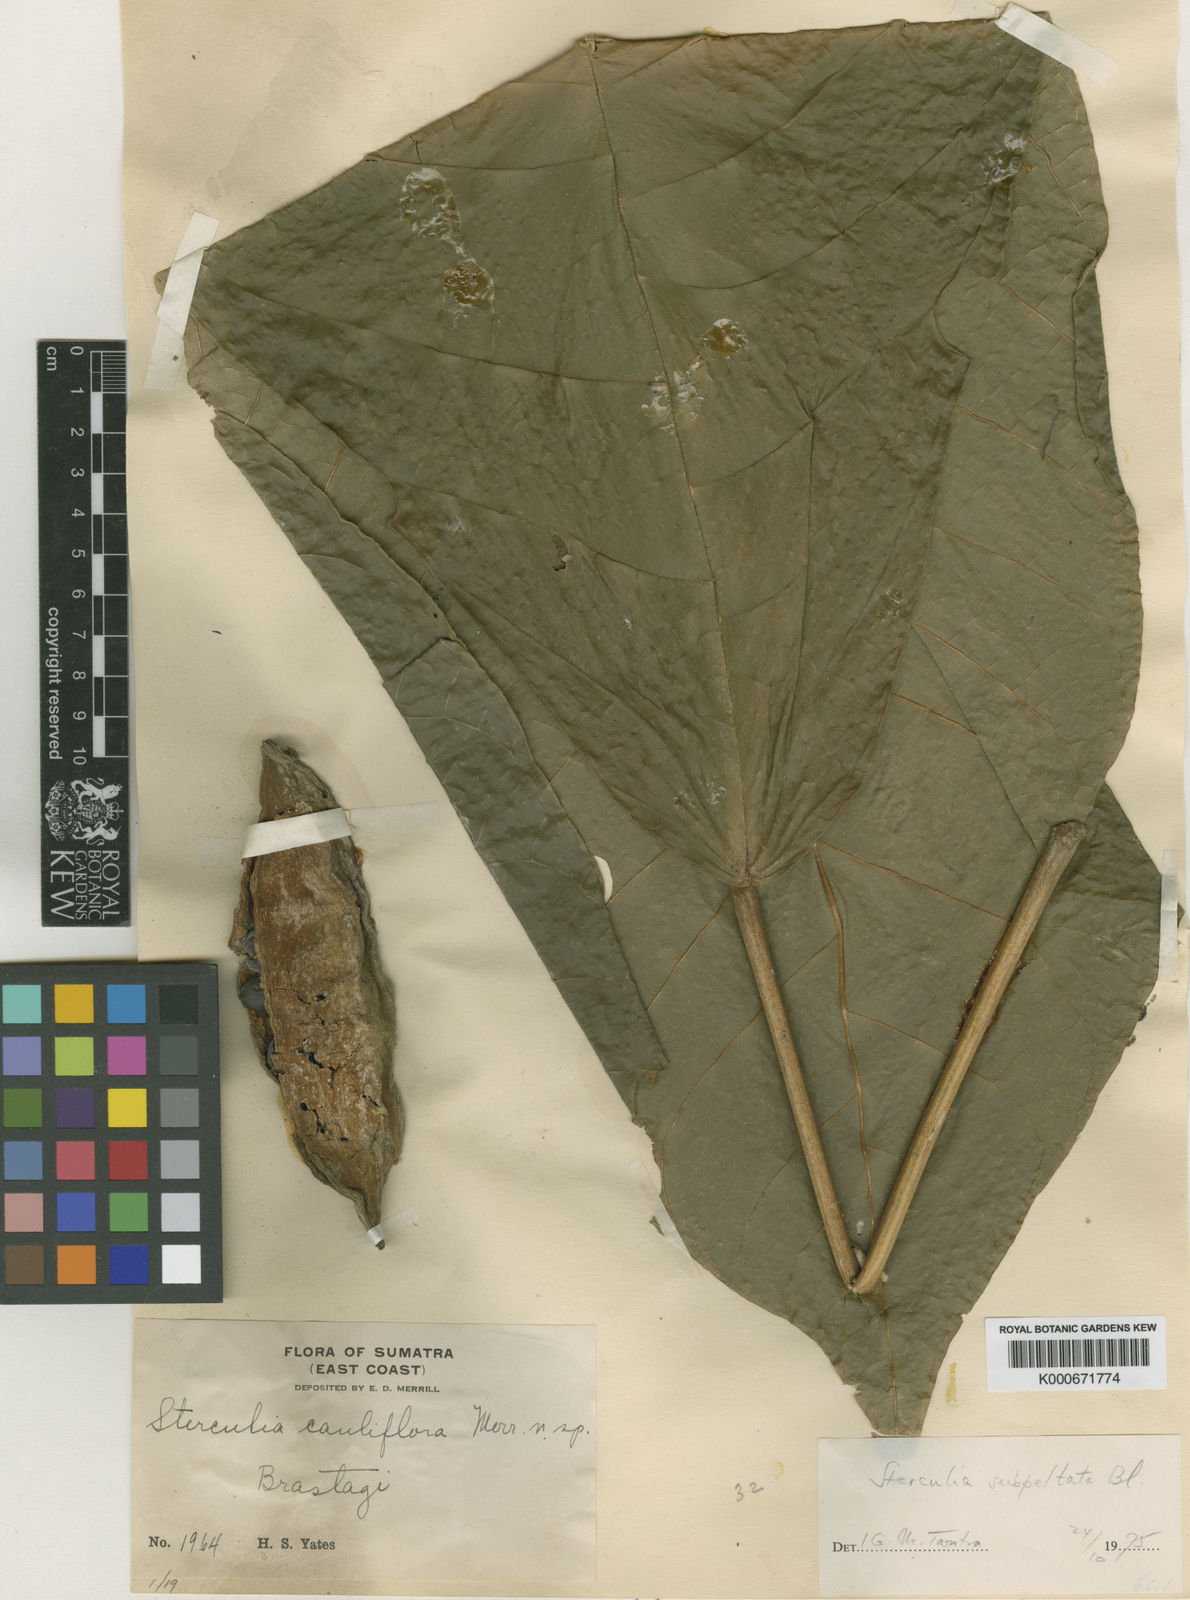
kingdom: Plantae
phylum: Tracheophyta
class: Magnoliopsida
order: Malvales
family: Malvaceae
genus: Sterculia
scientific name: Sterculia subpeltata
